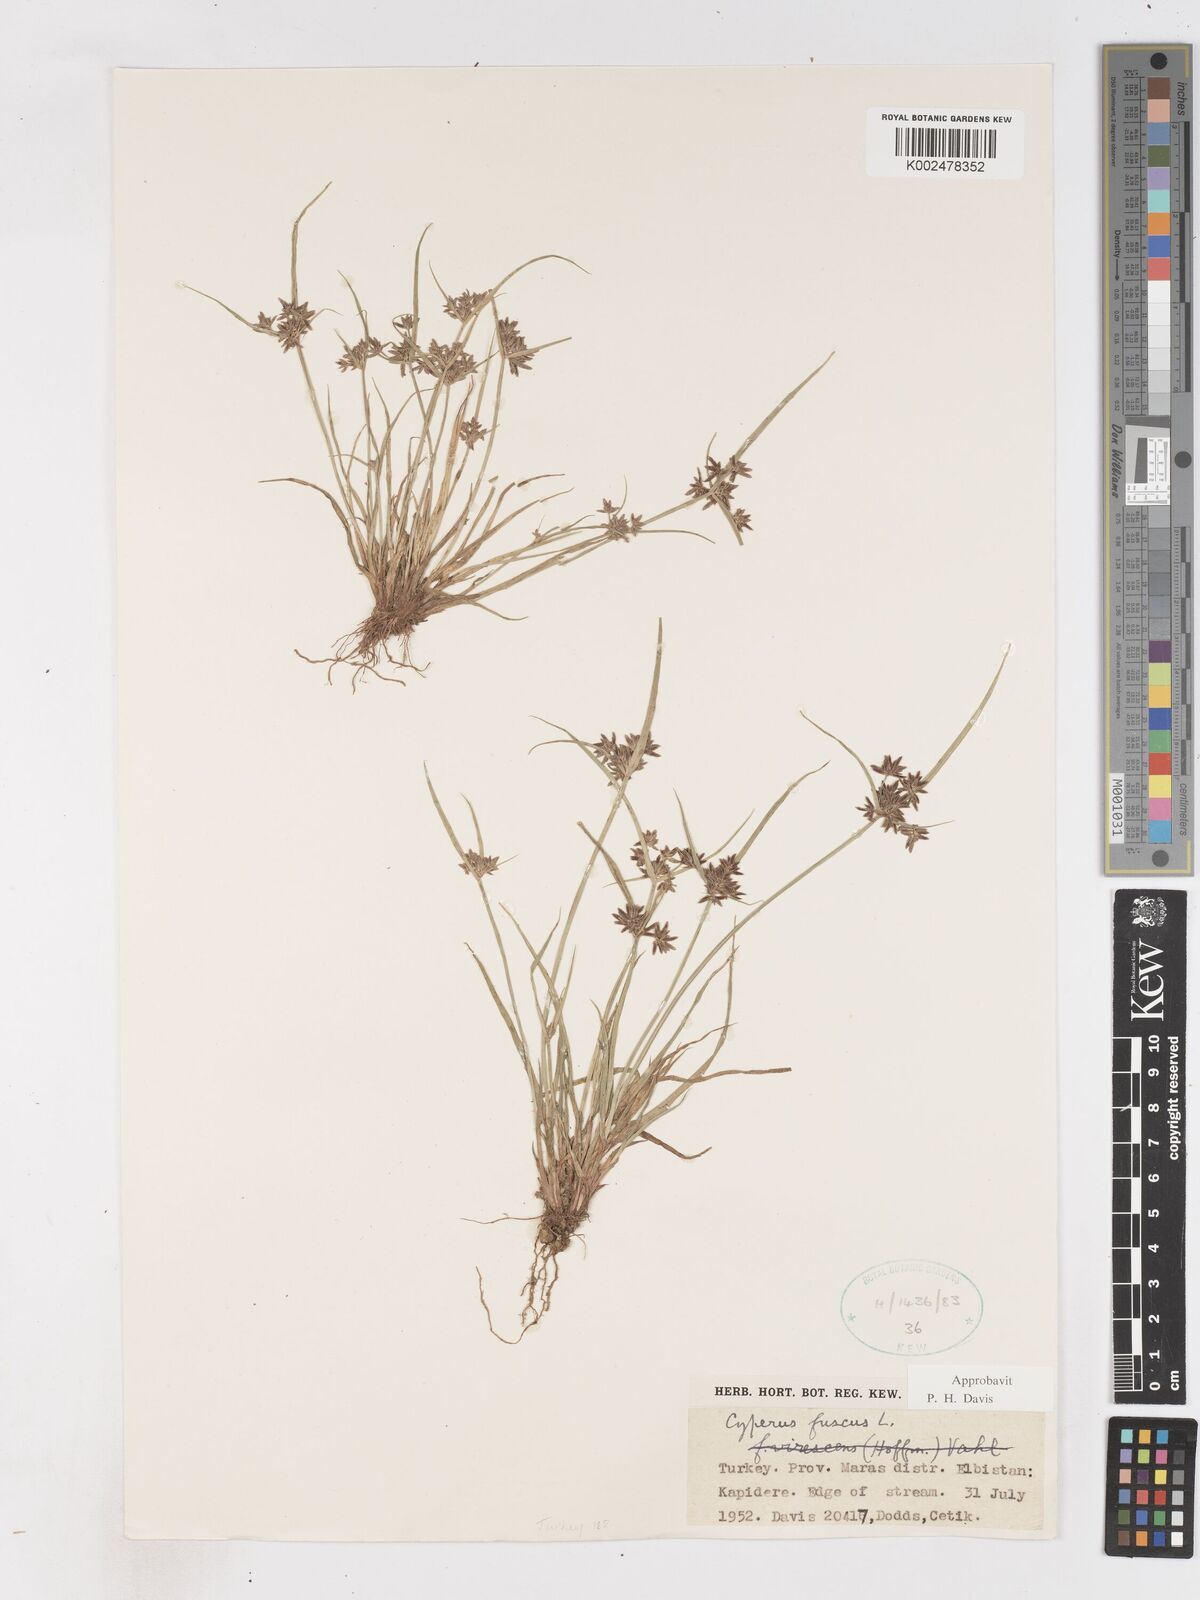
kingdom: Plantae
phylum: Tracheophyta
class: Liliopsida
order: Poales
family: Cyperaceae
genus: Cyperus
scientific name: Cyperus fuscus
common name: Brown galingale
